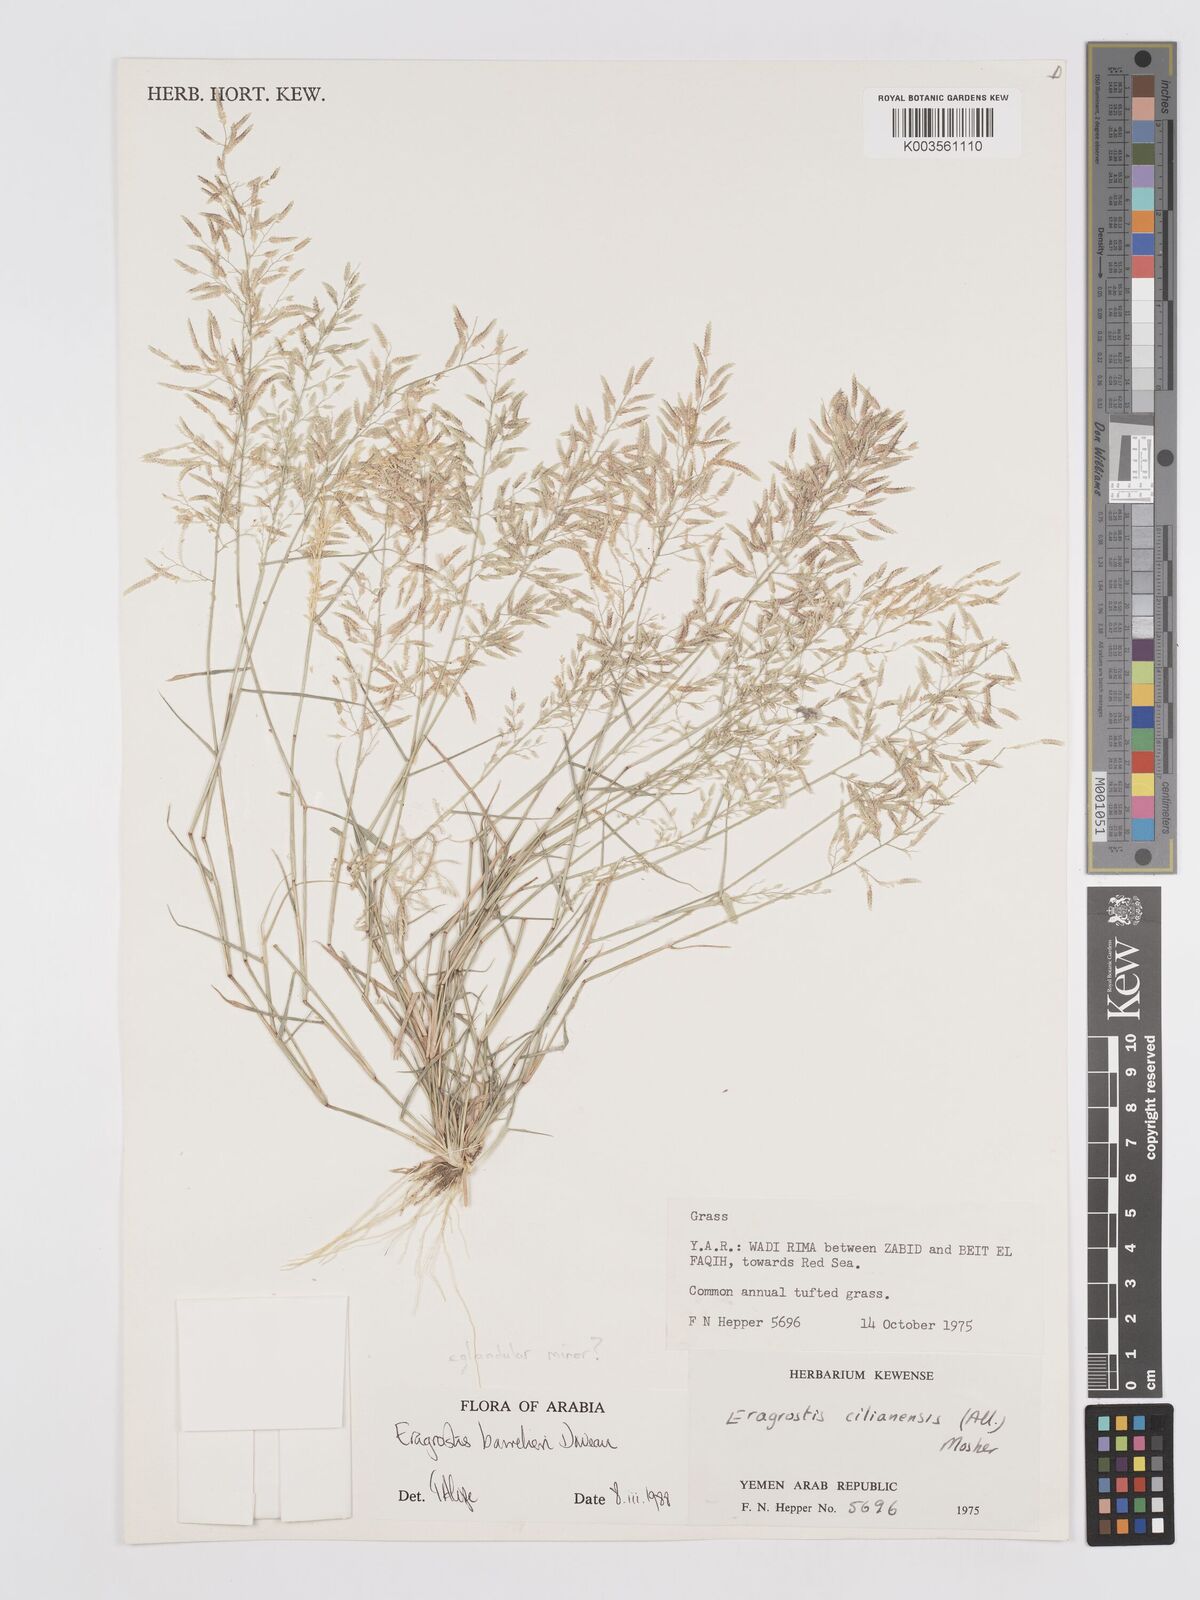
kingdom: Plantae
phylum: Tracheophyta
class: Liliopsida
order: Poales
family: Poaceae
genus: Eragrostis
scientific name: Eragrostis barrelieri
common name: Mediterranean lovegrass
